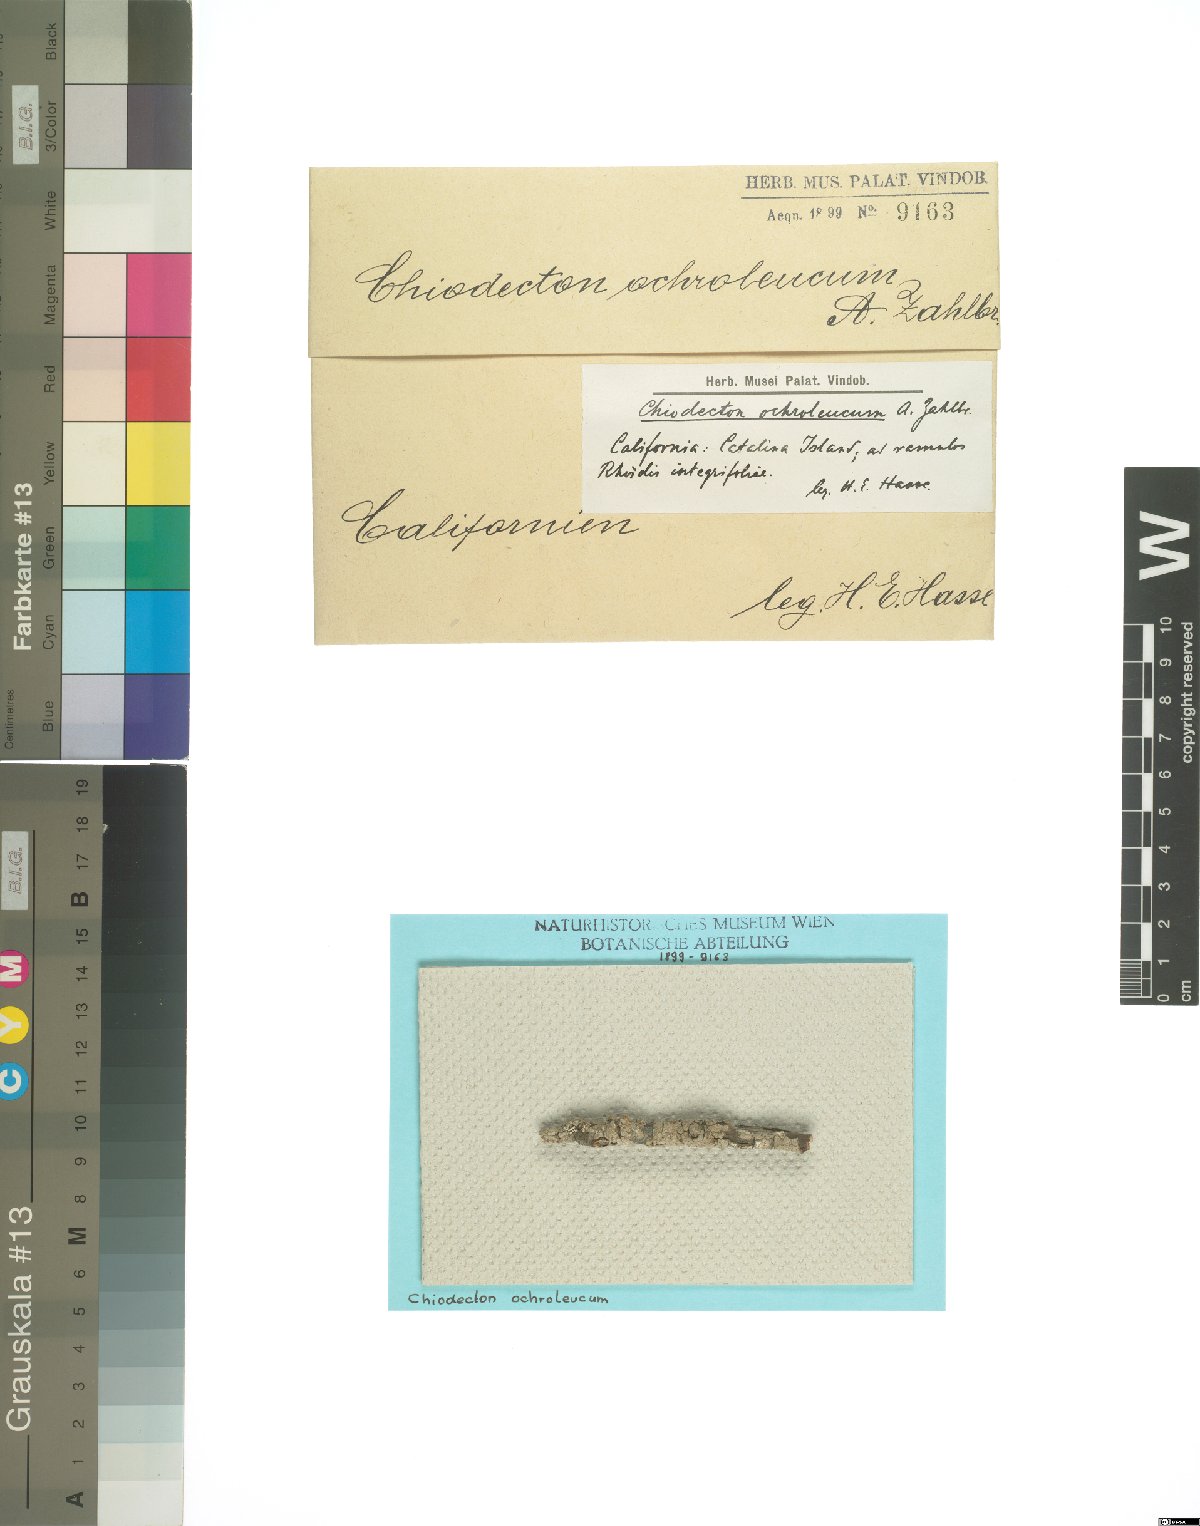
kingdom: Fungi
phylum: Ascomycota
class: Arthoniomycetes
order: Arthoniales
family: Opegraphaceae
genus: Paraschismatomma
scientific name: Paraschismatomma ochroleucum
